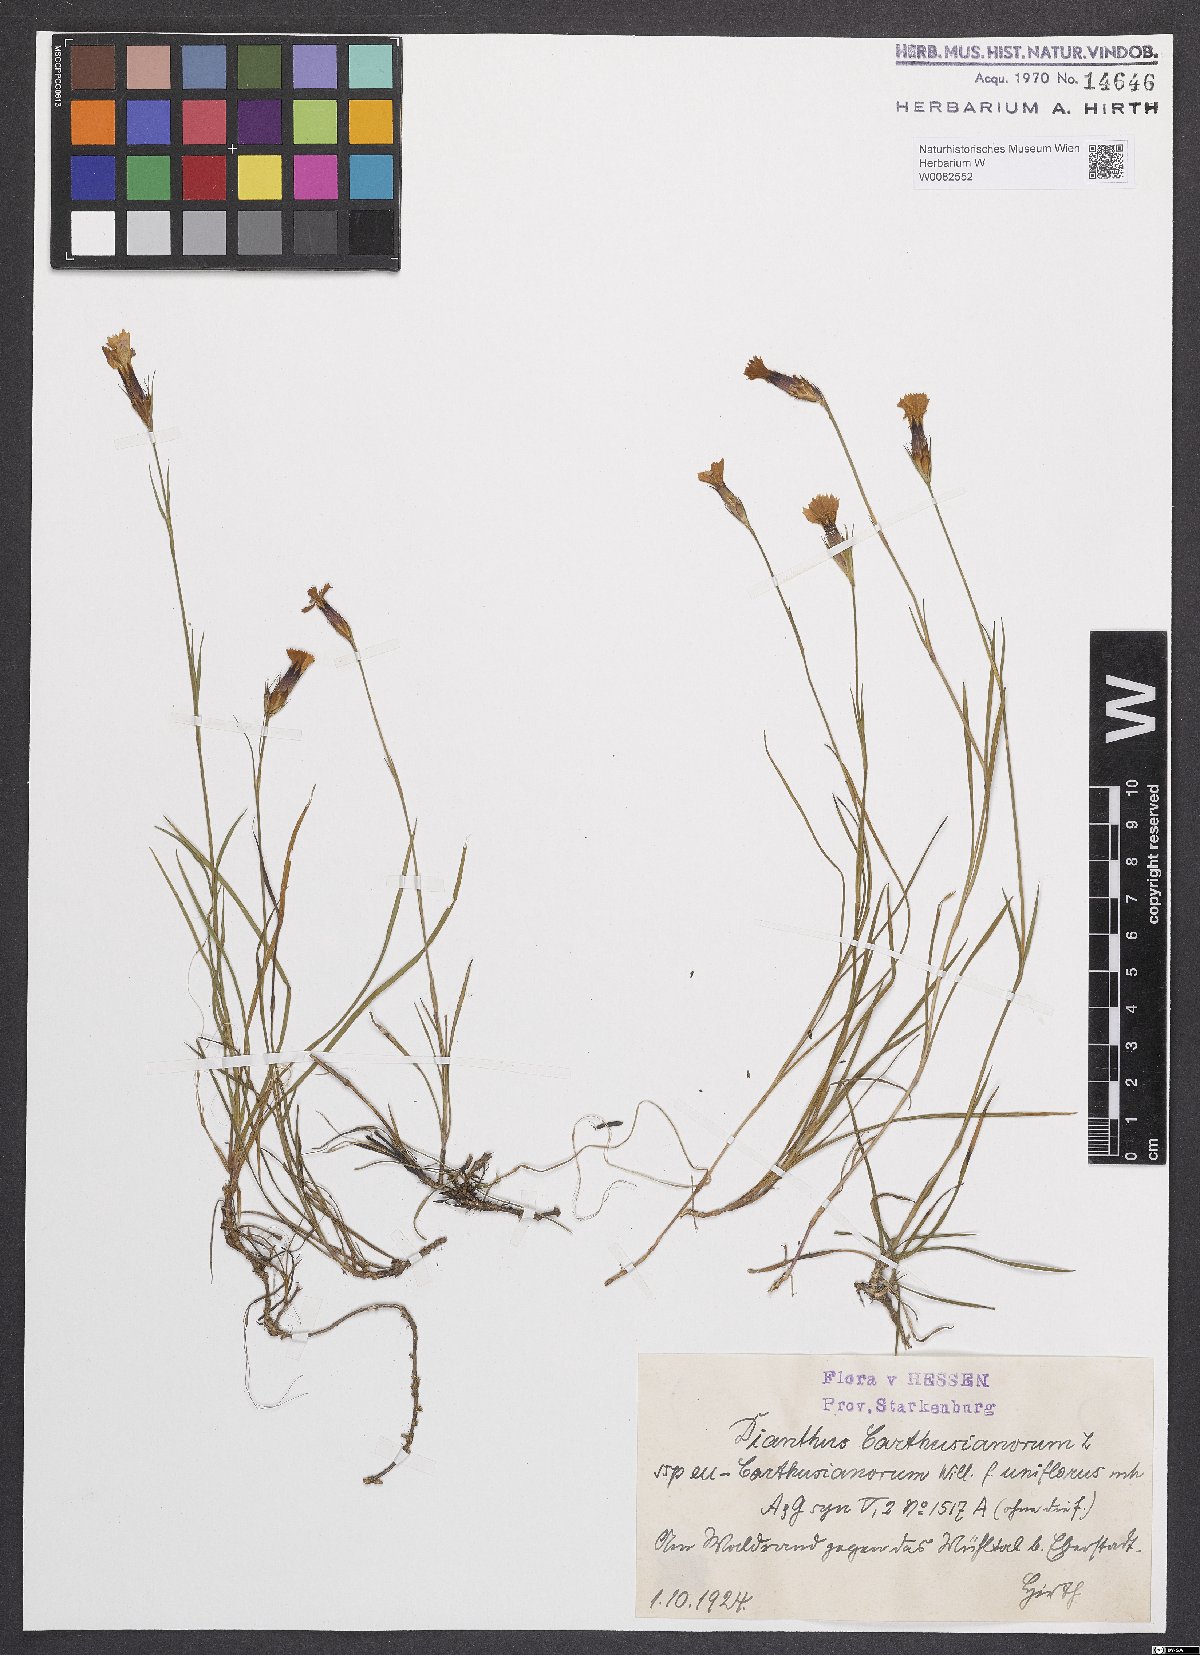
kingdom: Plantae
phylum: Tracheophyta
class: Magnoliopsida
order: Caryophyllales
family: Caryophyllaceae
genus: Dianthus
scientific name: Dianthus carthusianorum
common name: Carthusian pink
